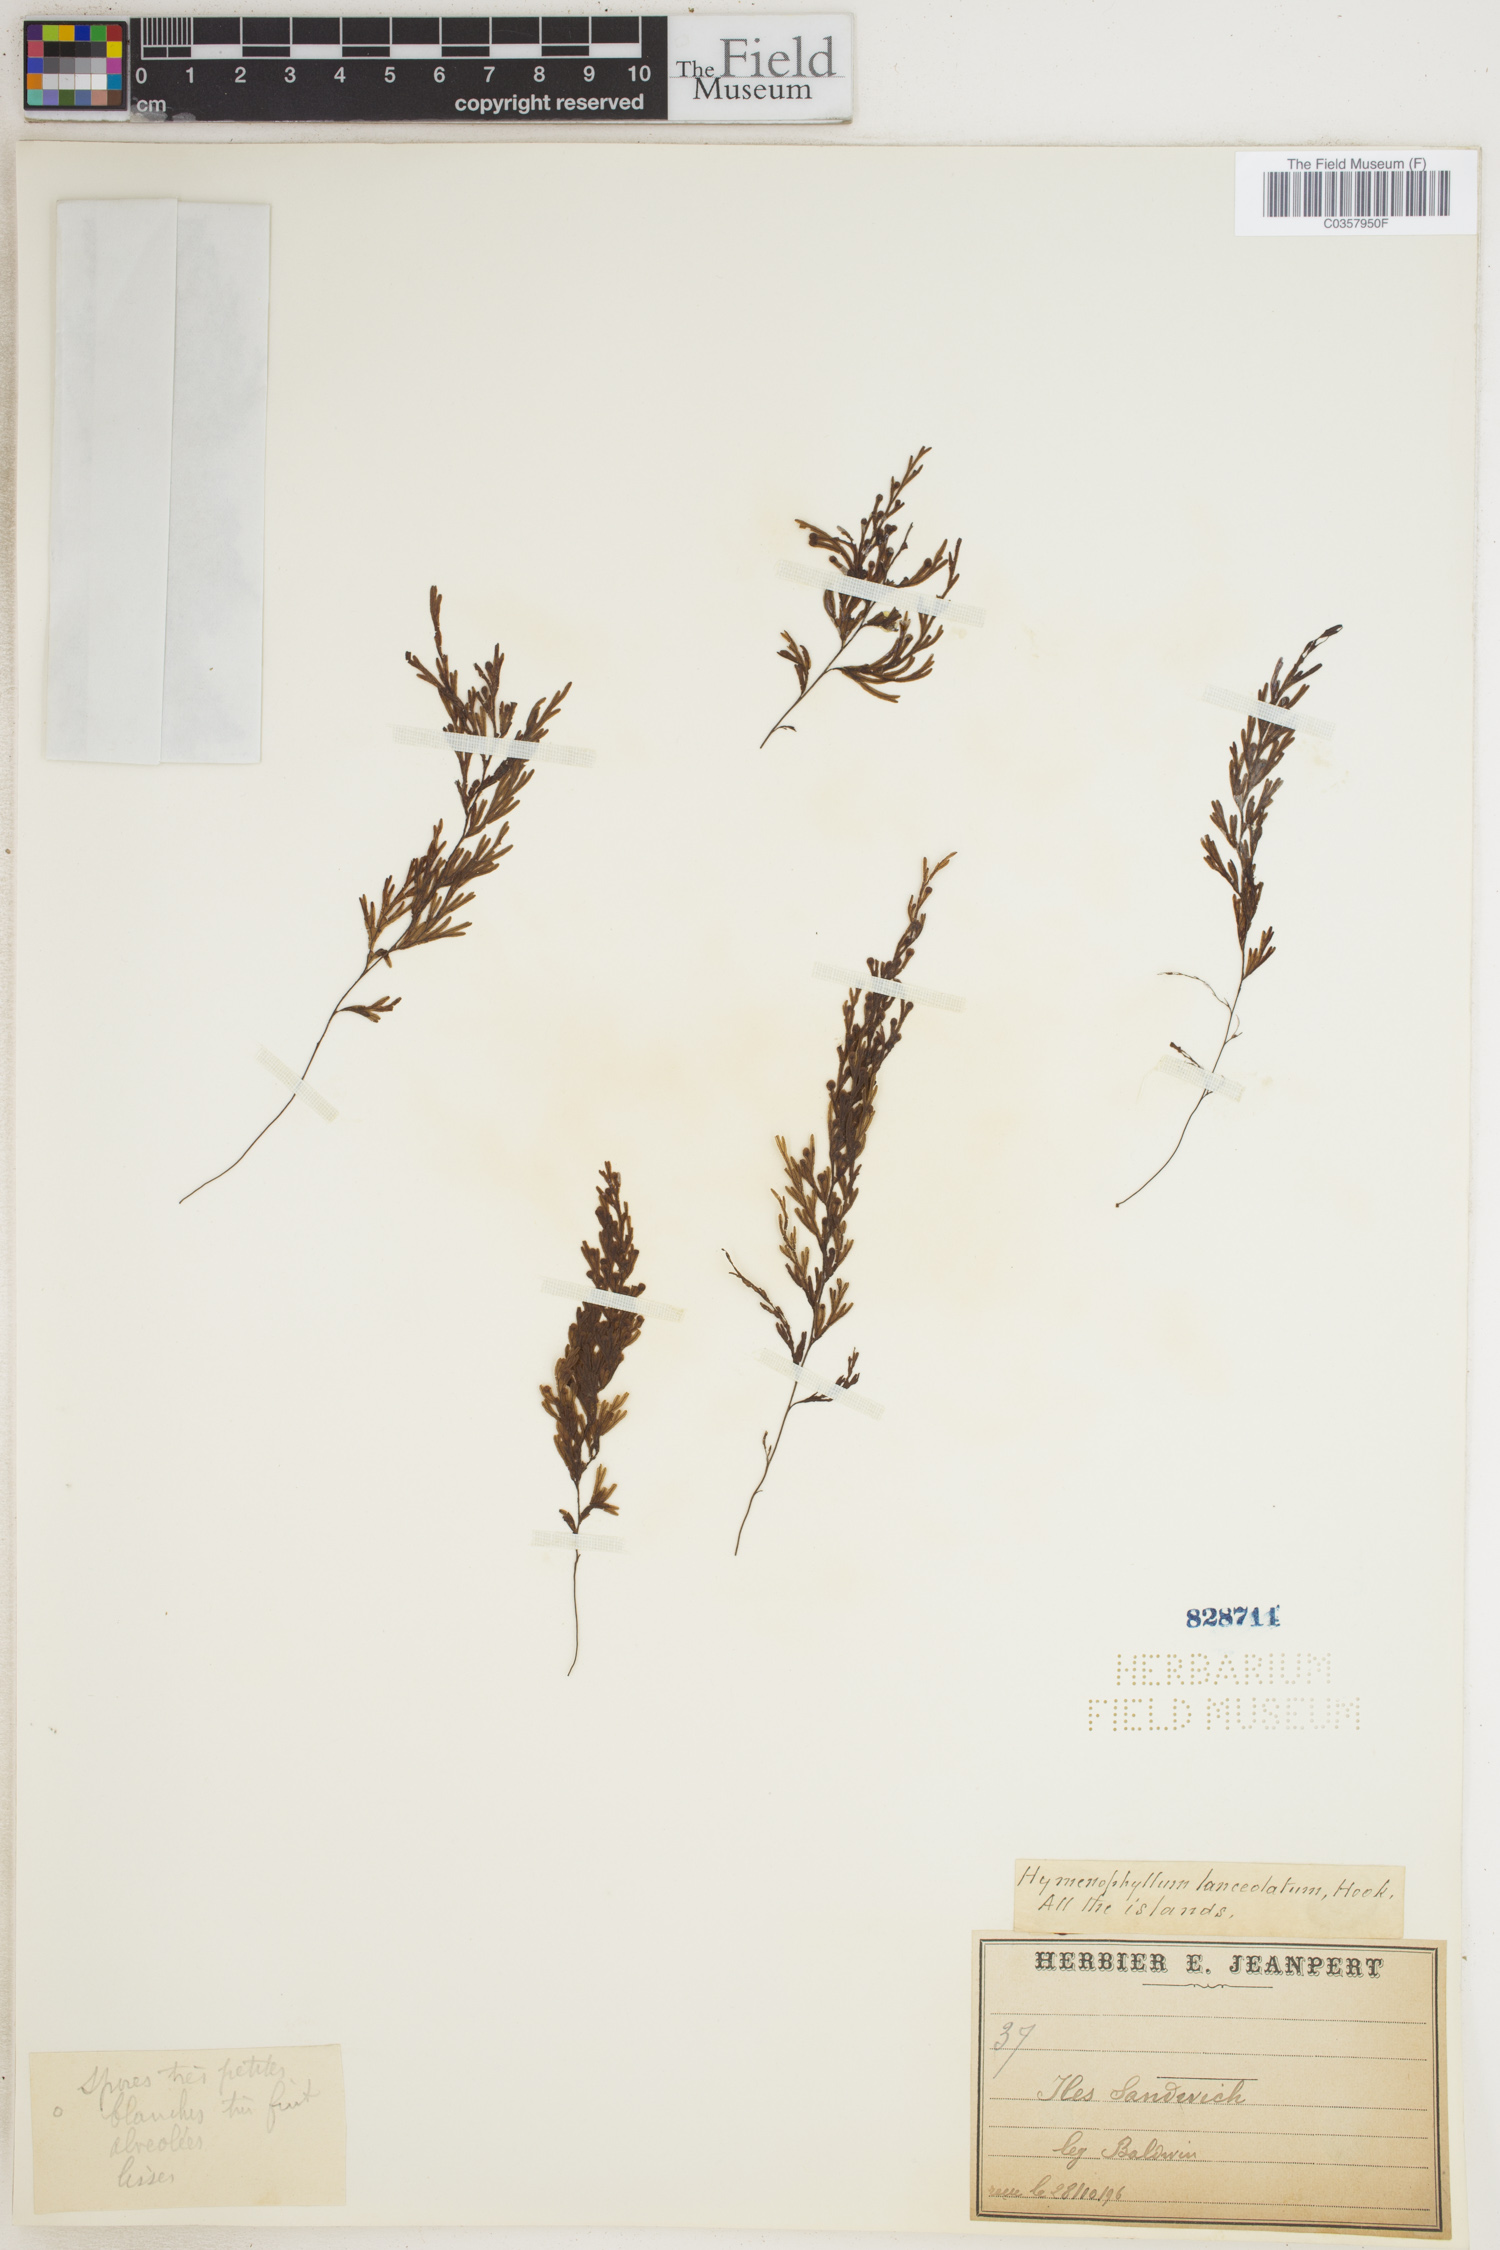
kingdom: Plantae
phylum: Tracheophyta
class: Polypodiopsida
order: Hymenophyllales
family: Hymenophyllaceae
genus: Hymenophyllum
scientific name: Hymenophyllum lanceolatum
